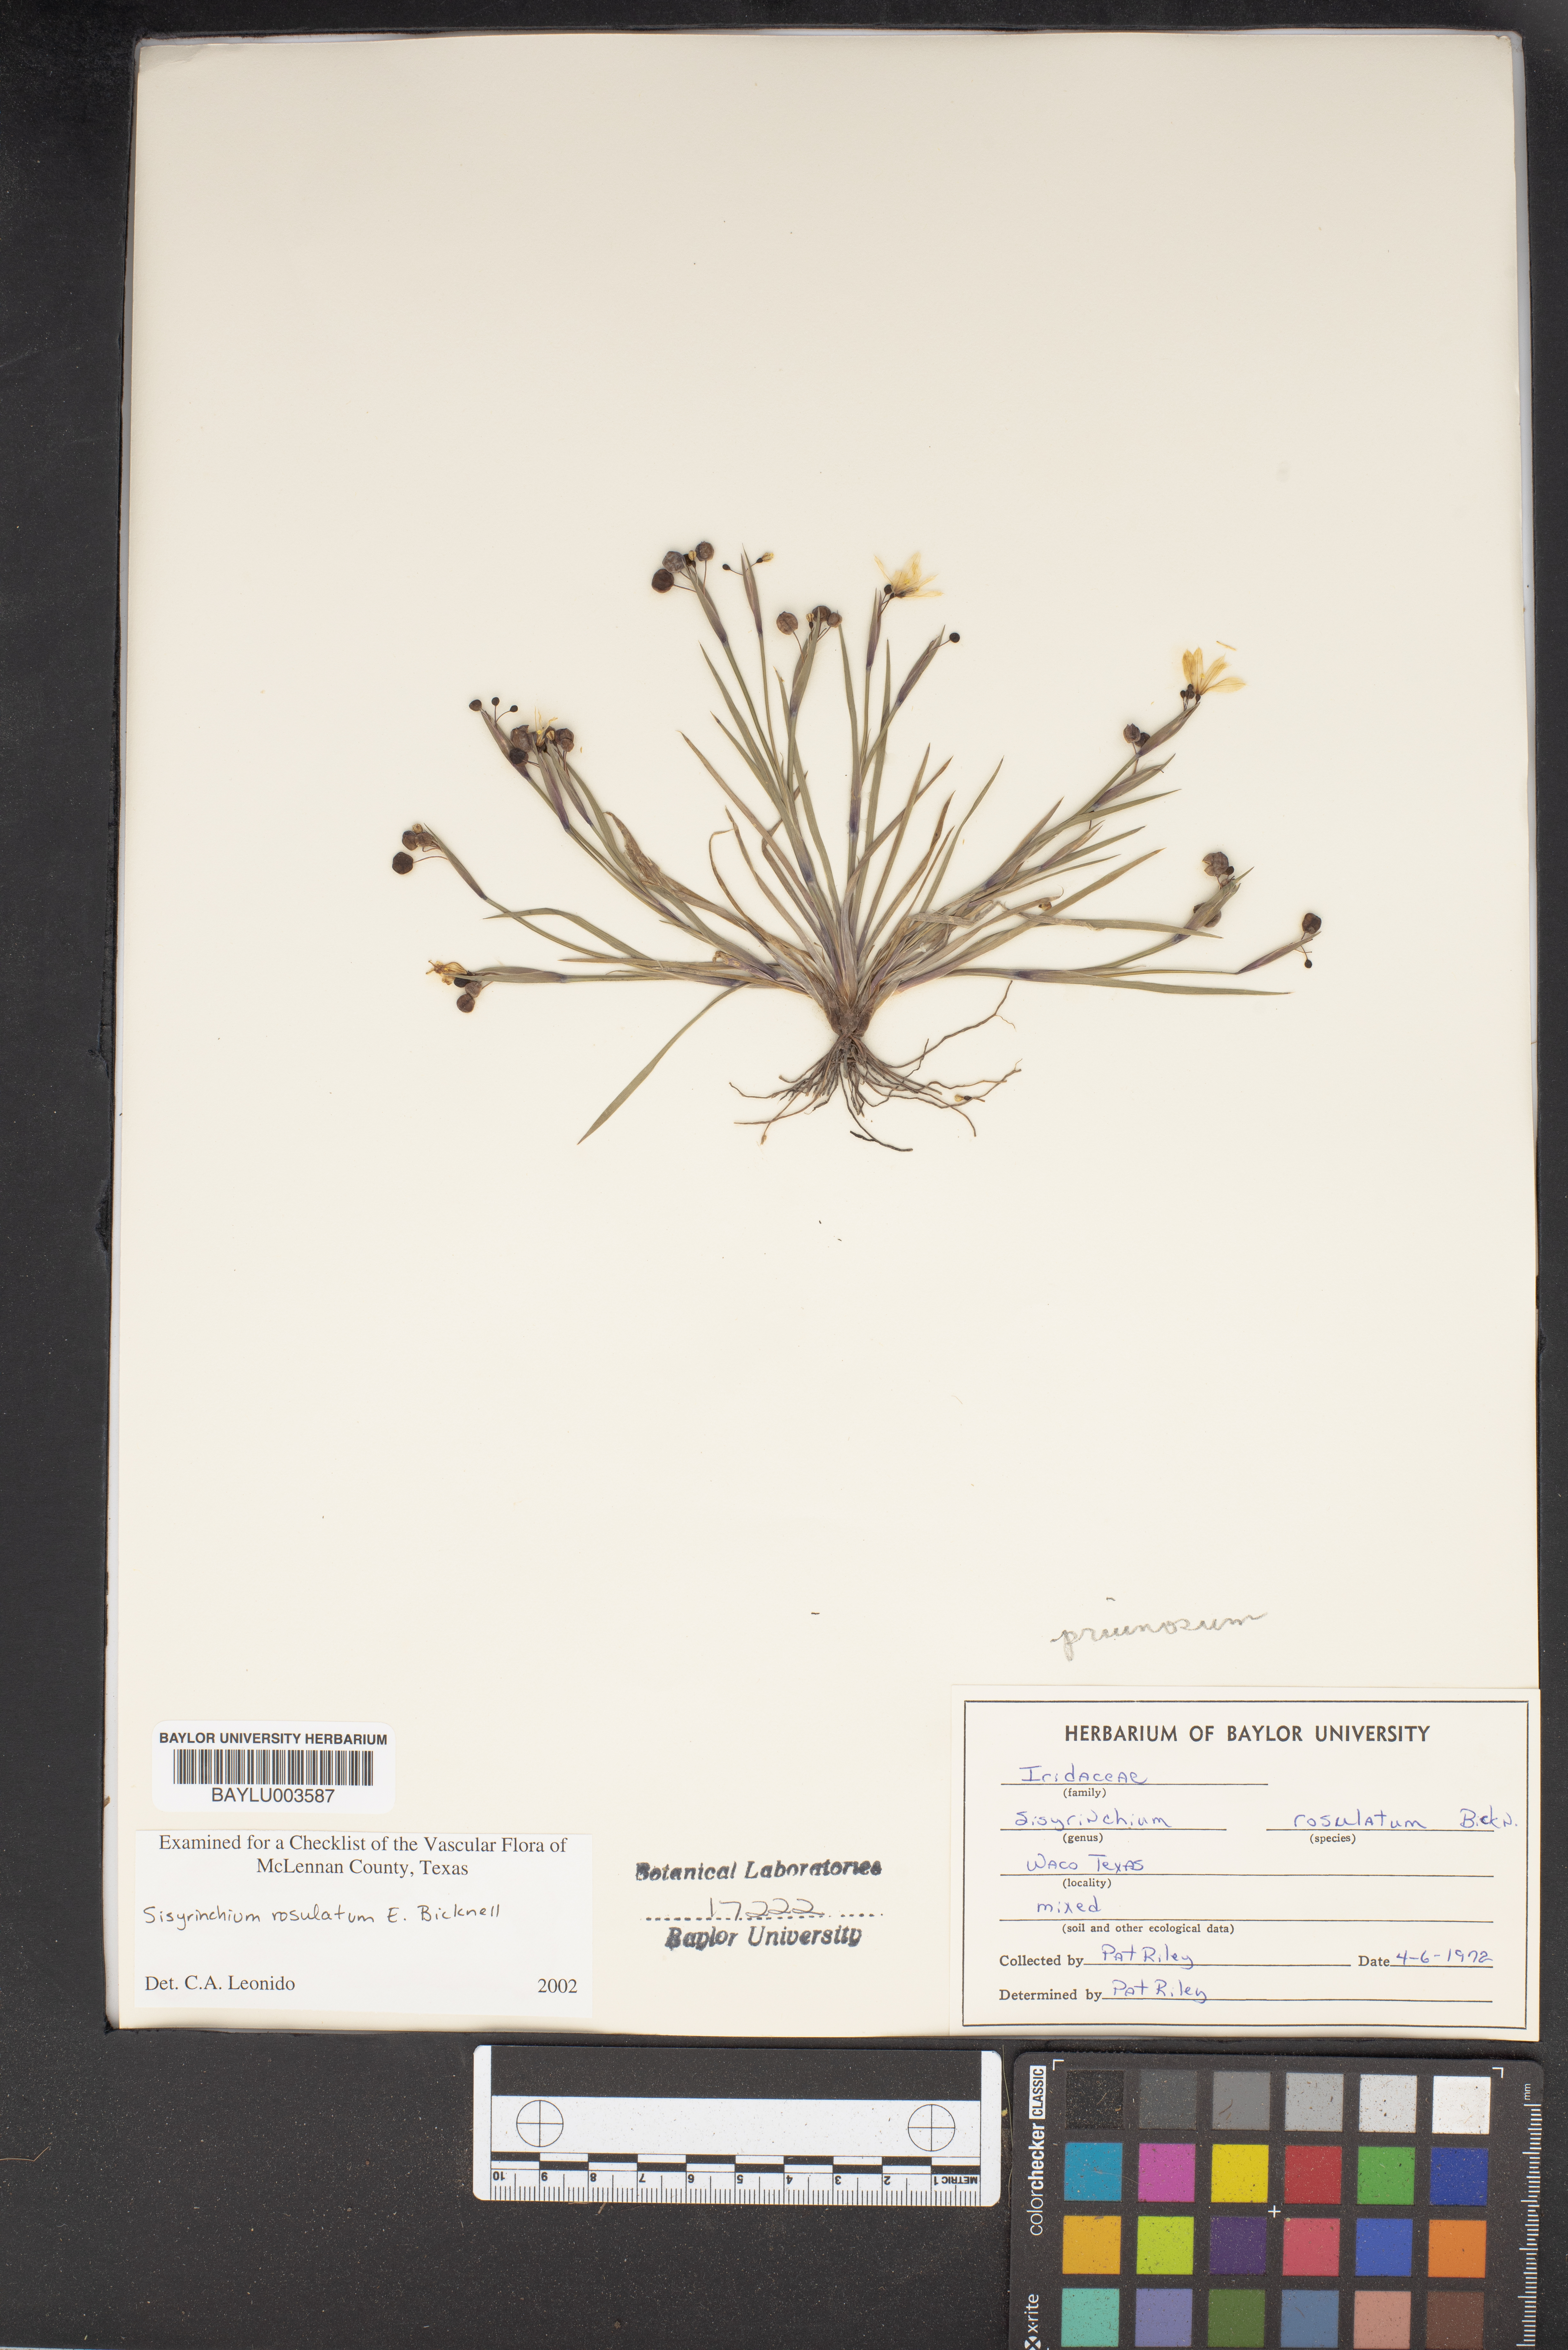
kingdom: Plantae
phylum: Tracheophyta
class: Liliopsida
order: Asparagales
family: Iridaceae
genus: Sisyrinchium
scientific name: Sisyrinchium rosulatum
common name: Annual blue-eyed grass
